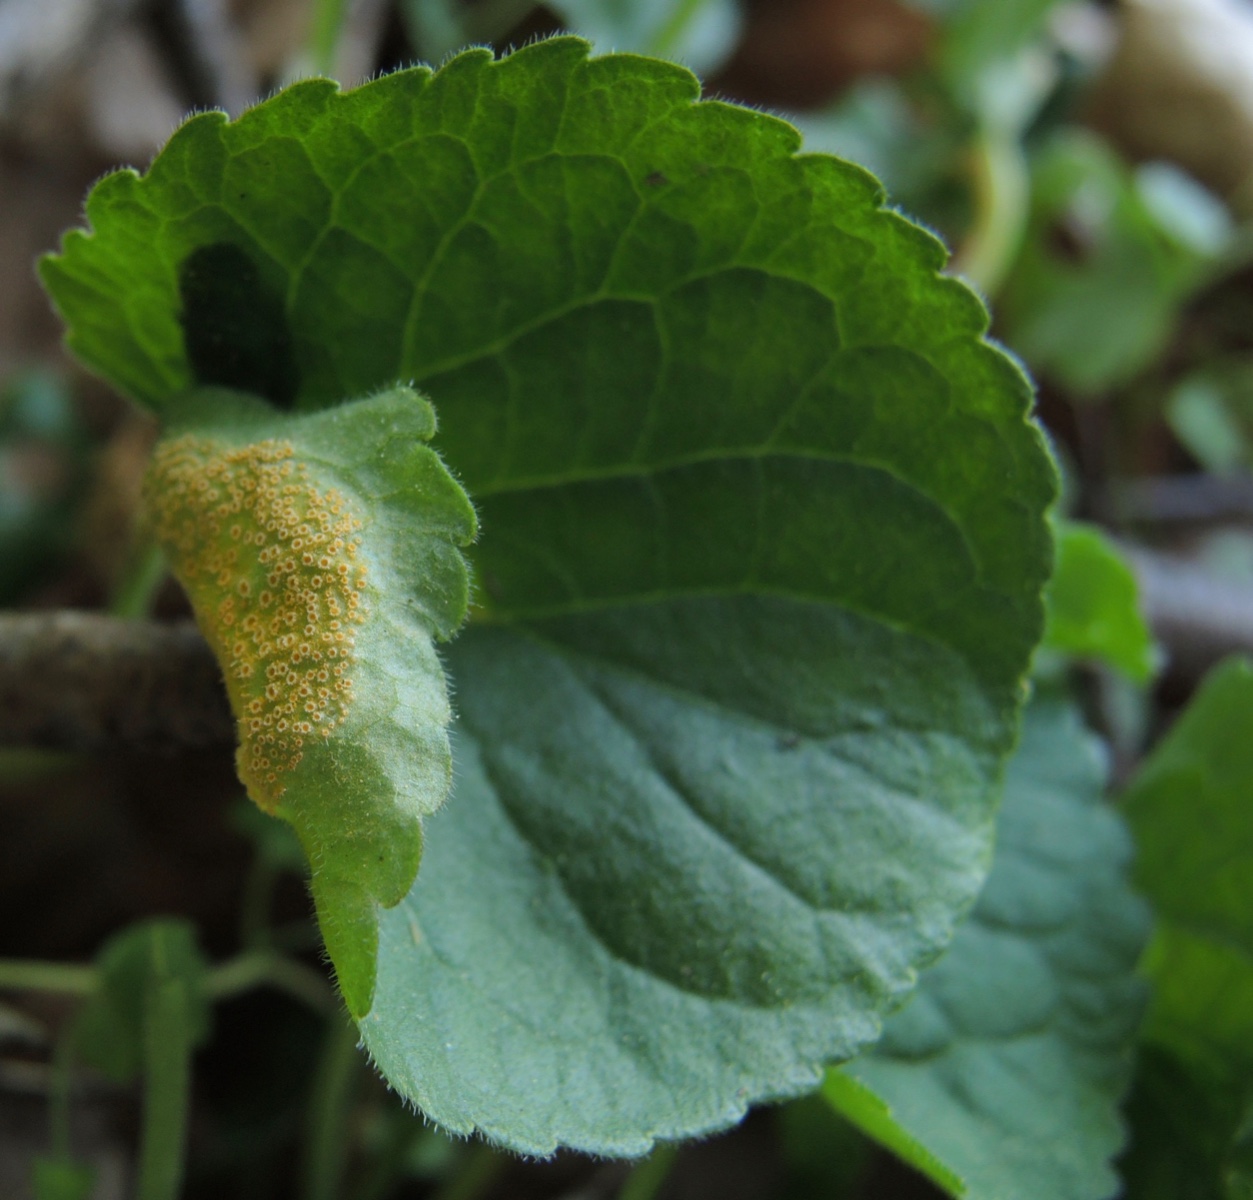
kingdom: Fungi
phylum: Basidiomycota
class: Pucciniomycetes
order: Pucciniales
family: Pucciniaceae
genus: Puccinia
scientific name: Puccinia violae
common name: viol-tvecellerust
